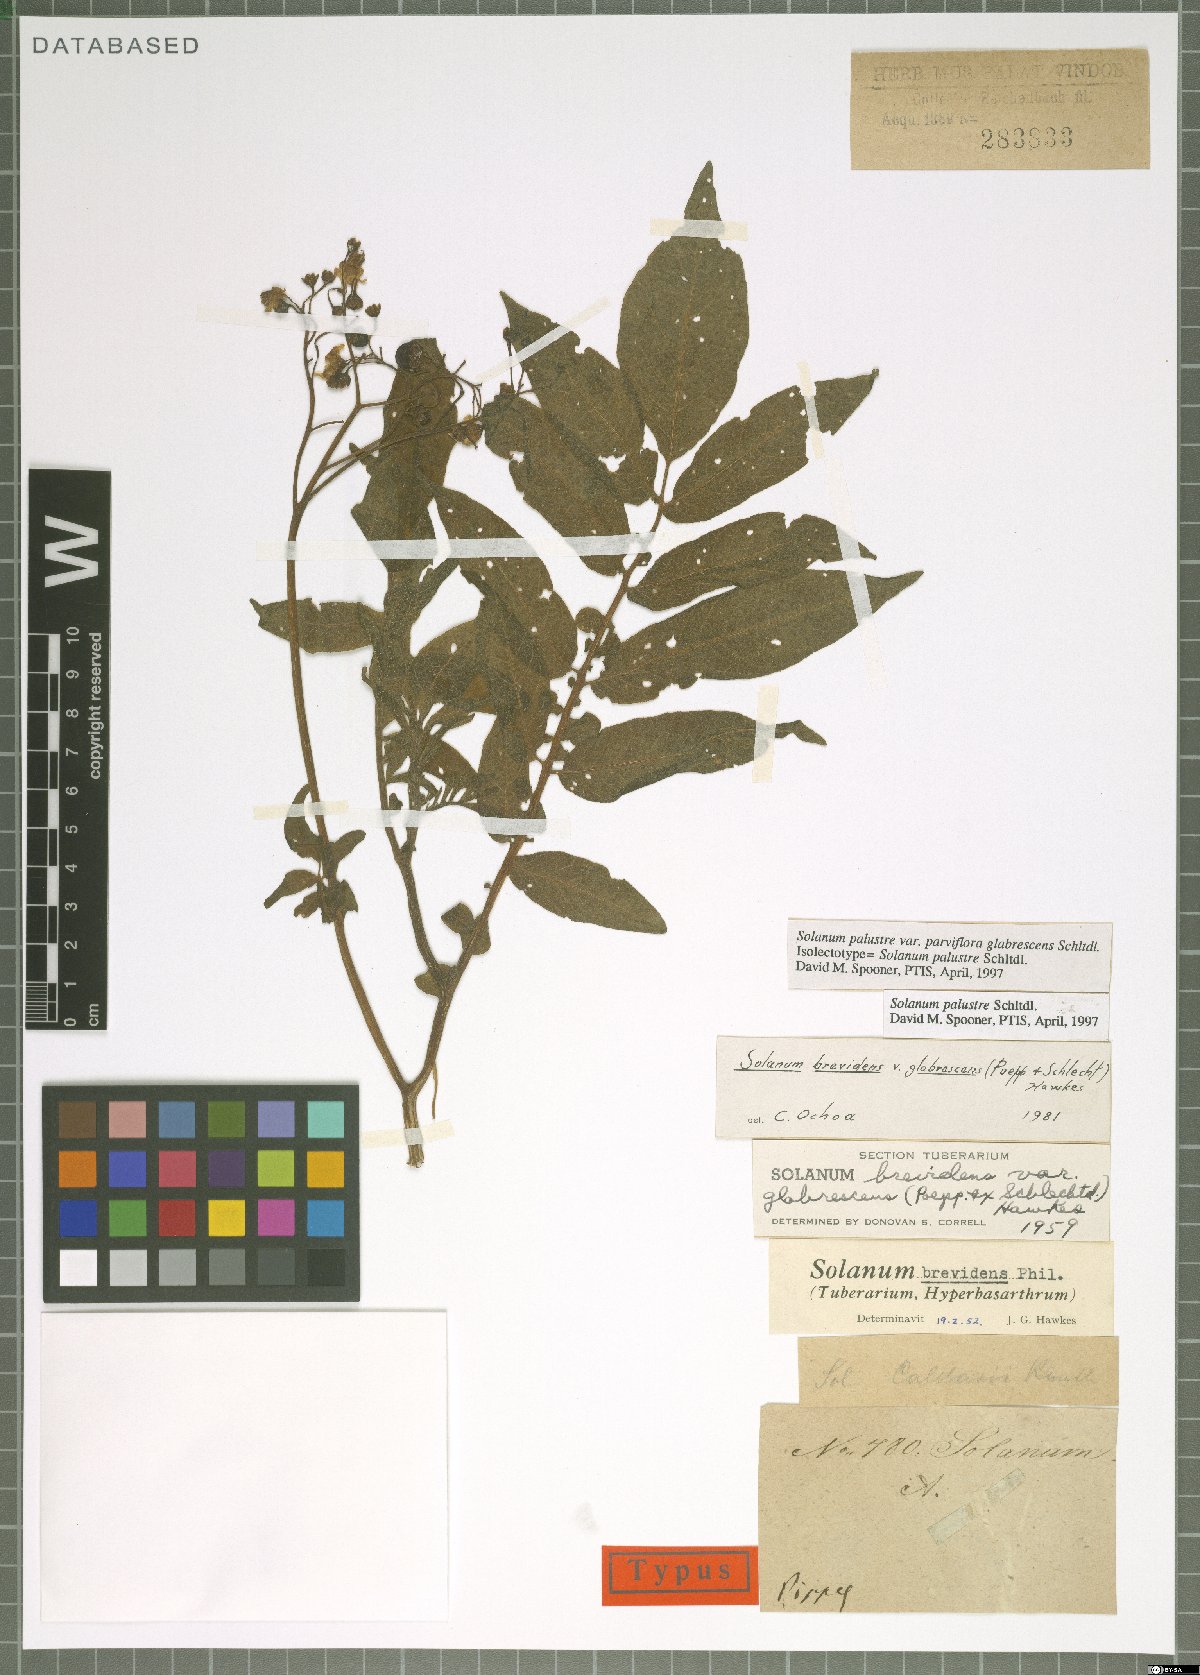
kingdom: Plantae
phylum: Tracheophyta
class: Magnoliopsida
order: Solanales
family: Solanaceae
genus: Solanum
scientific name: Solanum palustre
